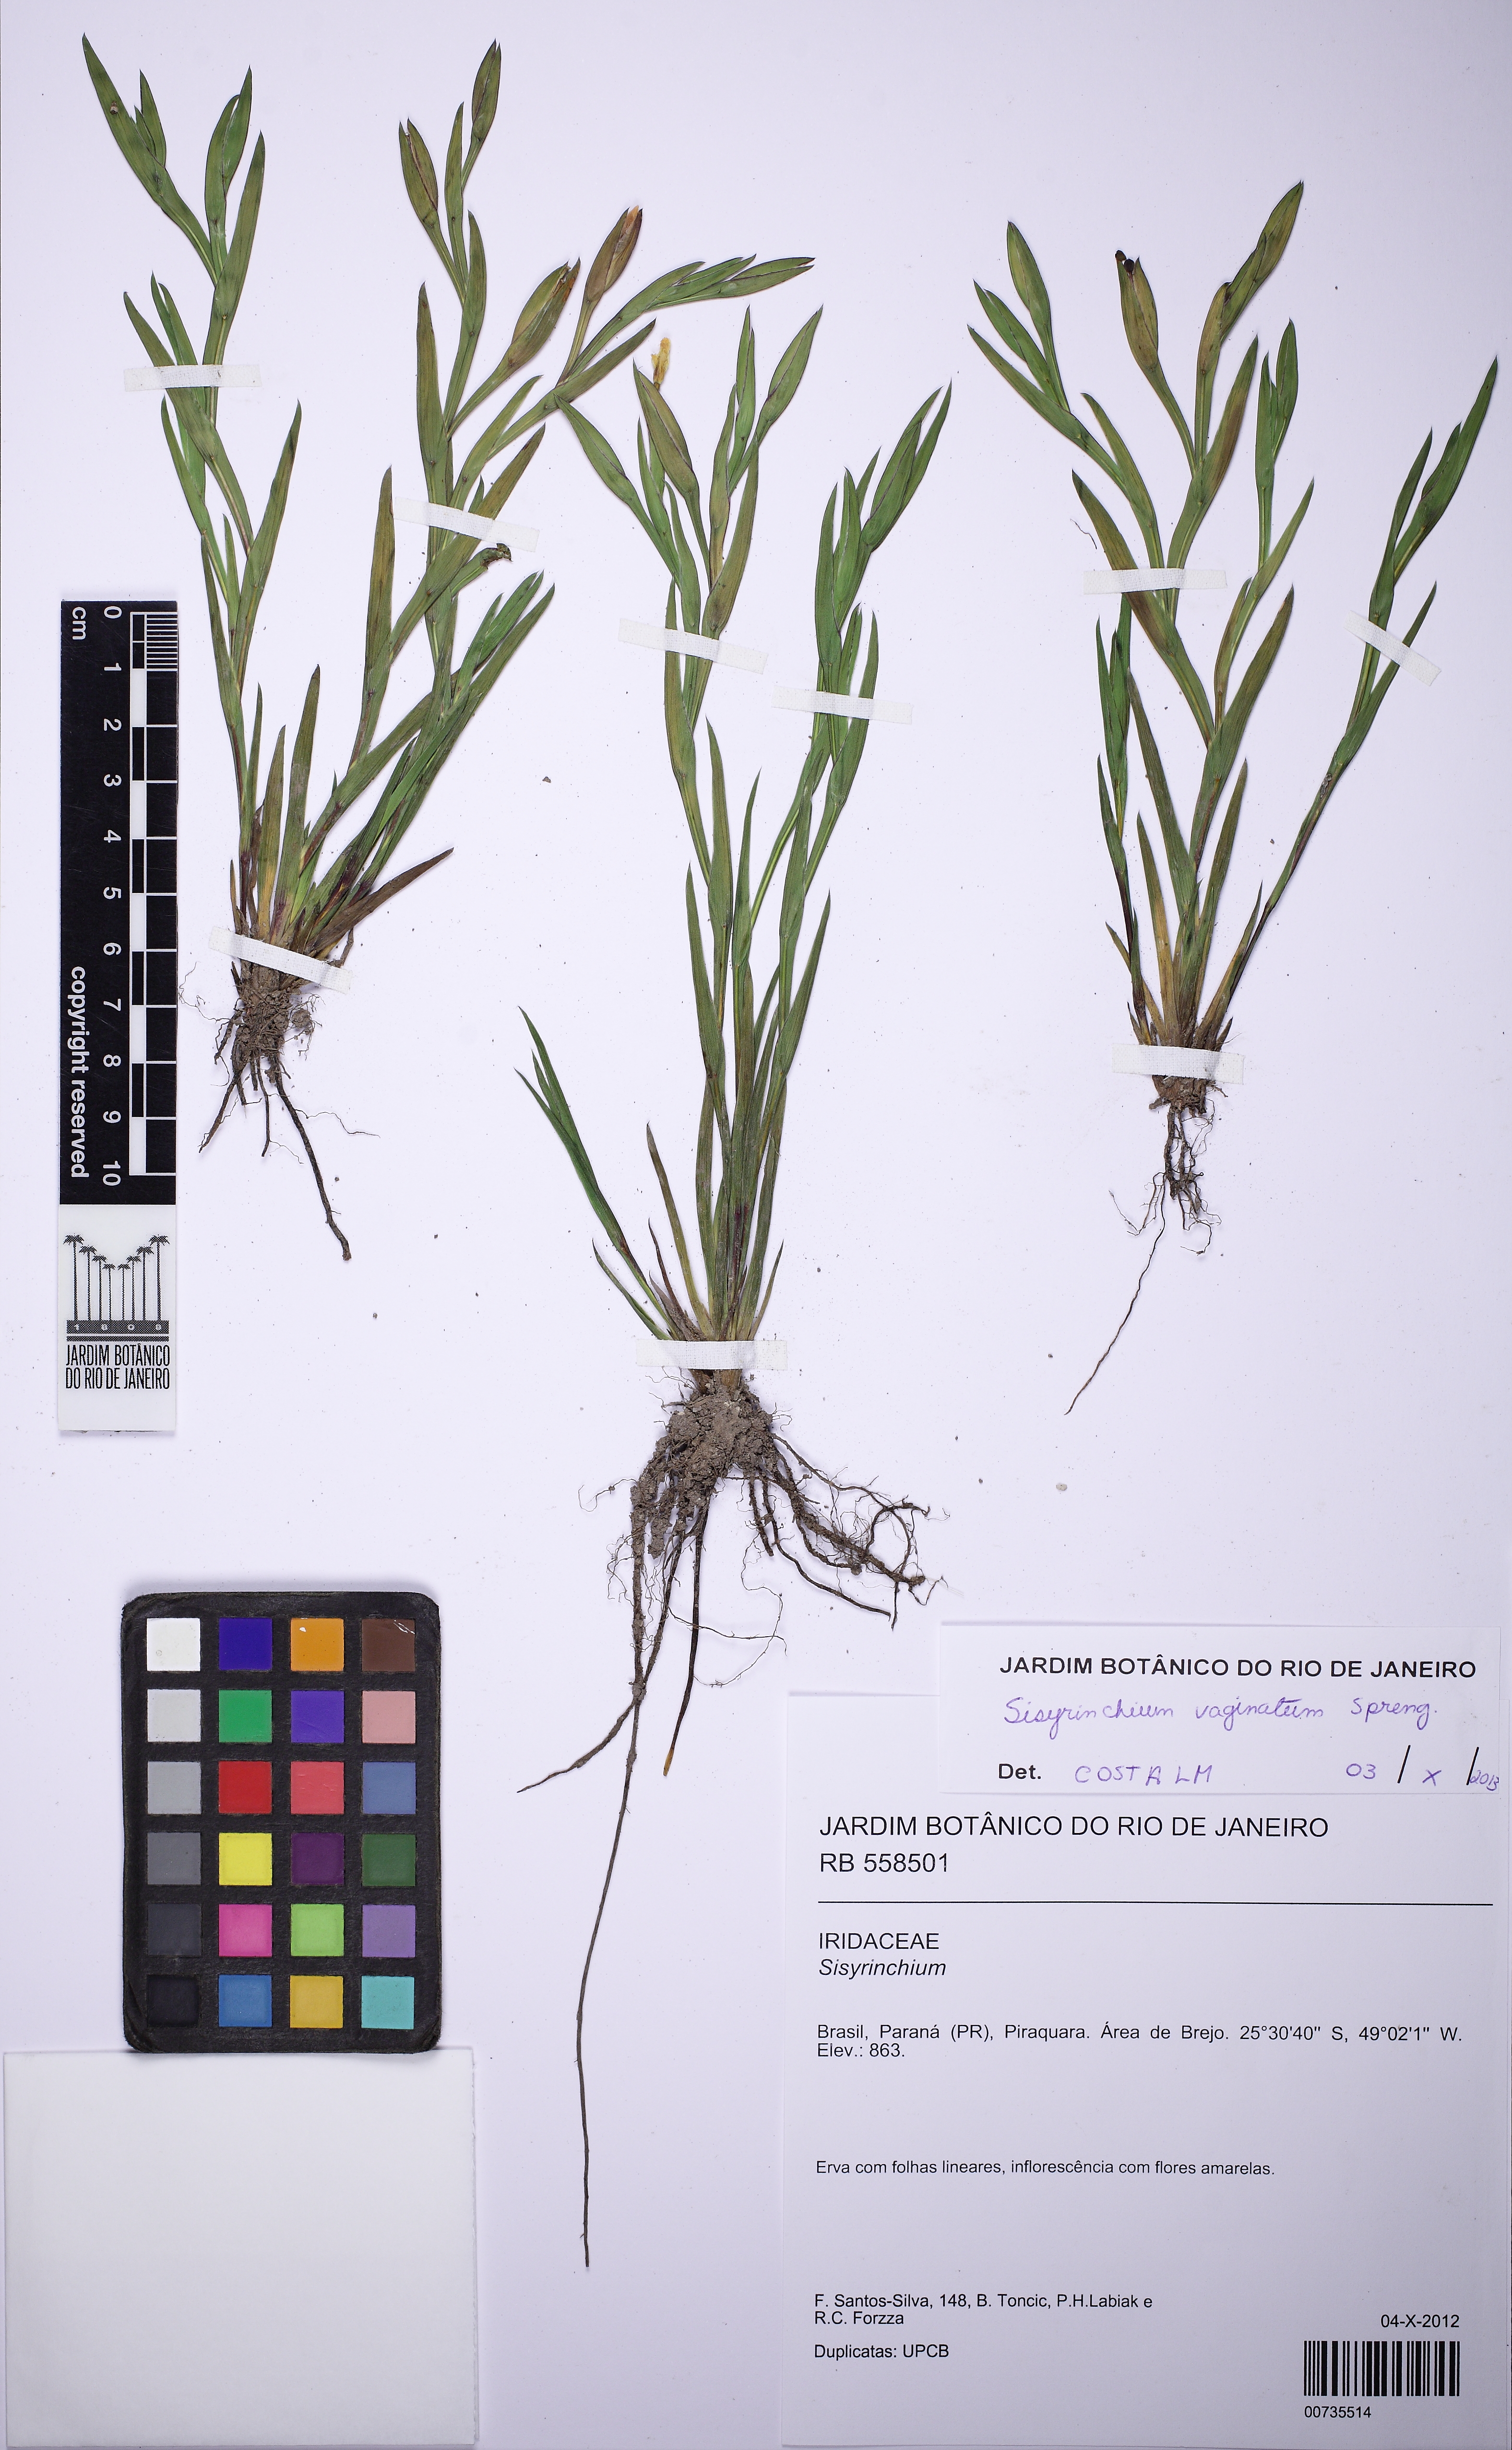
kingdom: Plantae
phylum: Tracheophyta
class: Liliopsida
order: Asparagales
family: Iridaceae
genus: Sisyrinchium
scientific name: Sisyrinchium vaginatum
